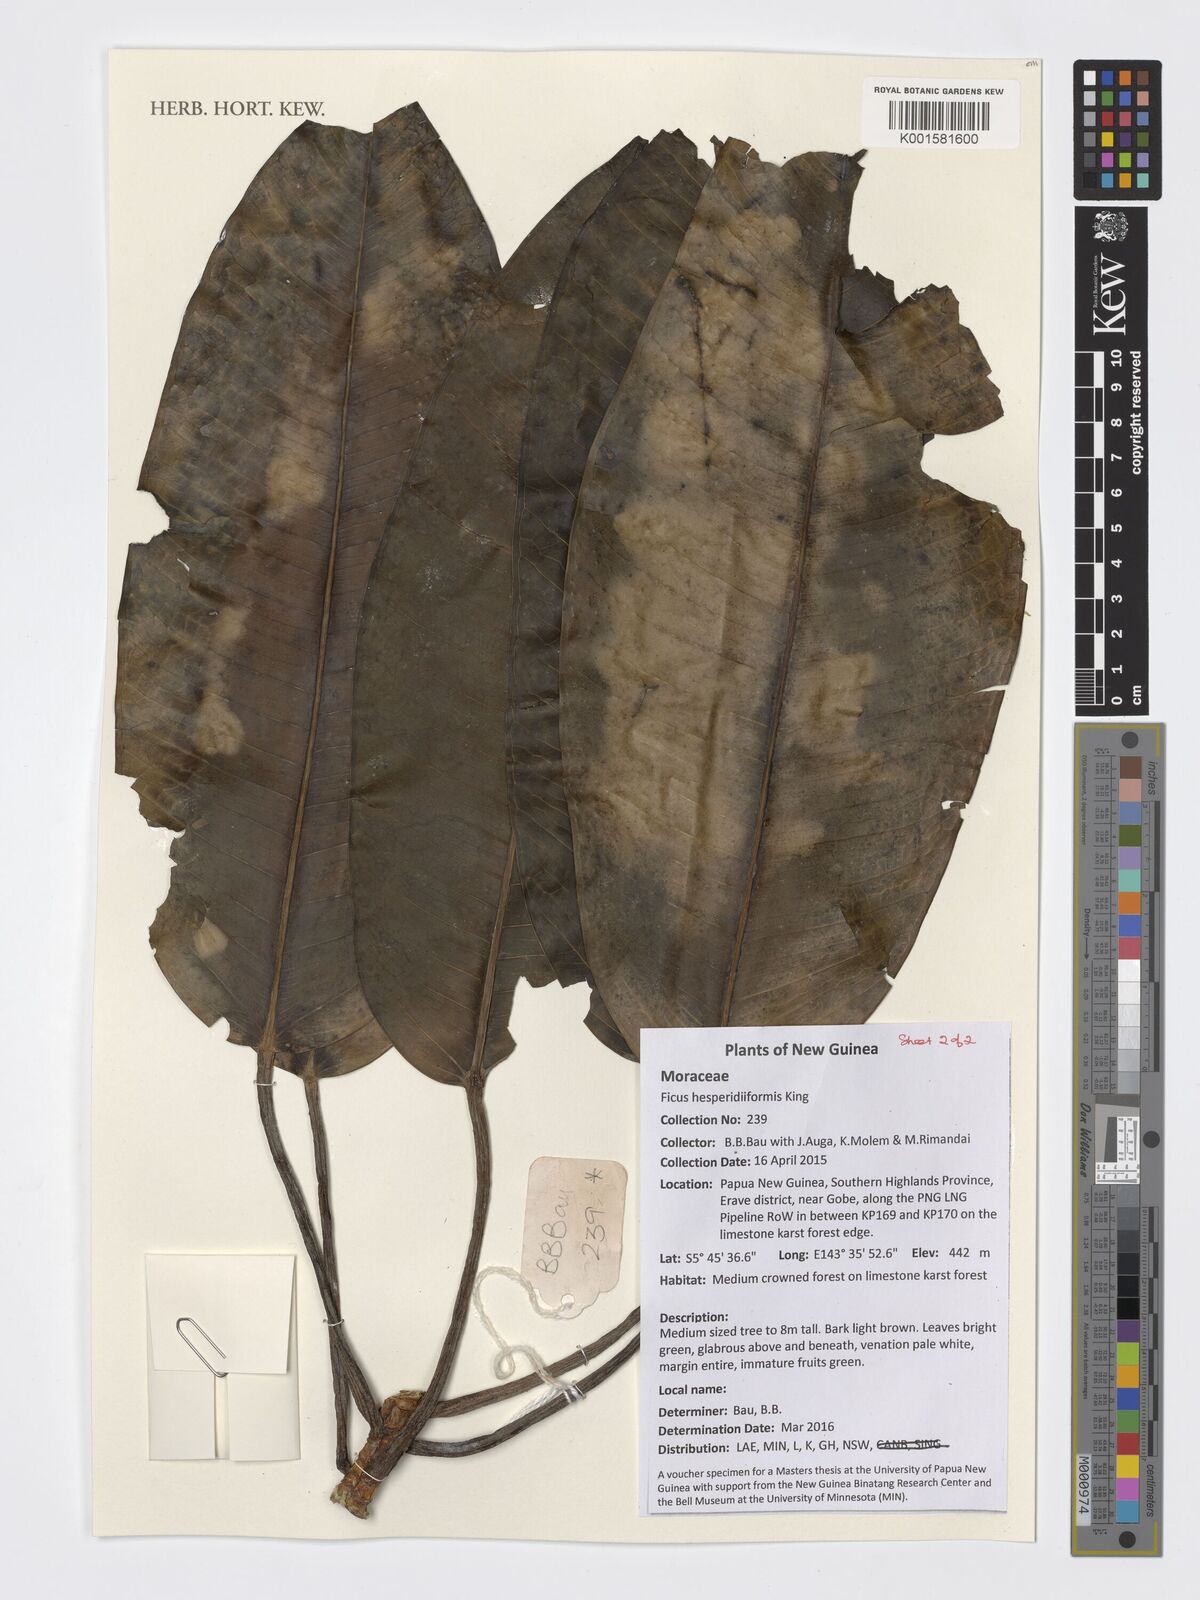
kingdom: Plantae
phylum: Tracheophyta
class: Magnoliopsida
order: Rosales
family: Moraceae
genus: Ficus
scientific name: Ficus hesperidiiformis
